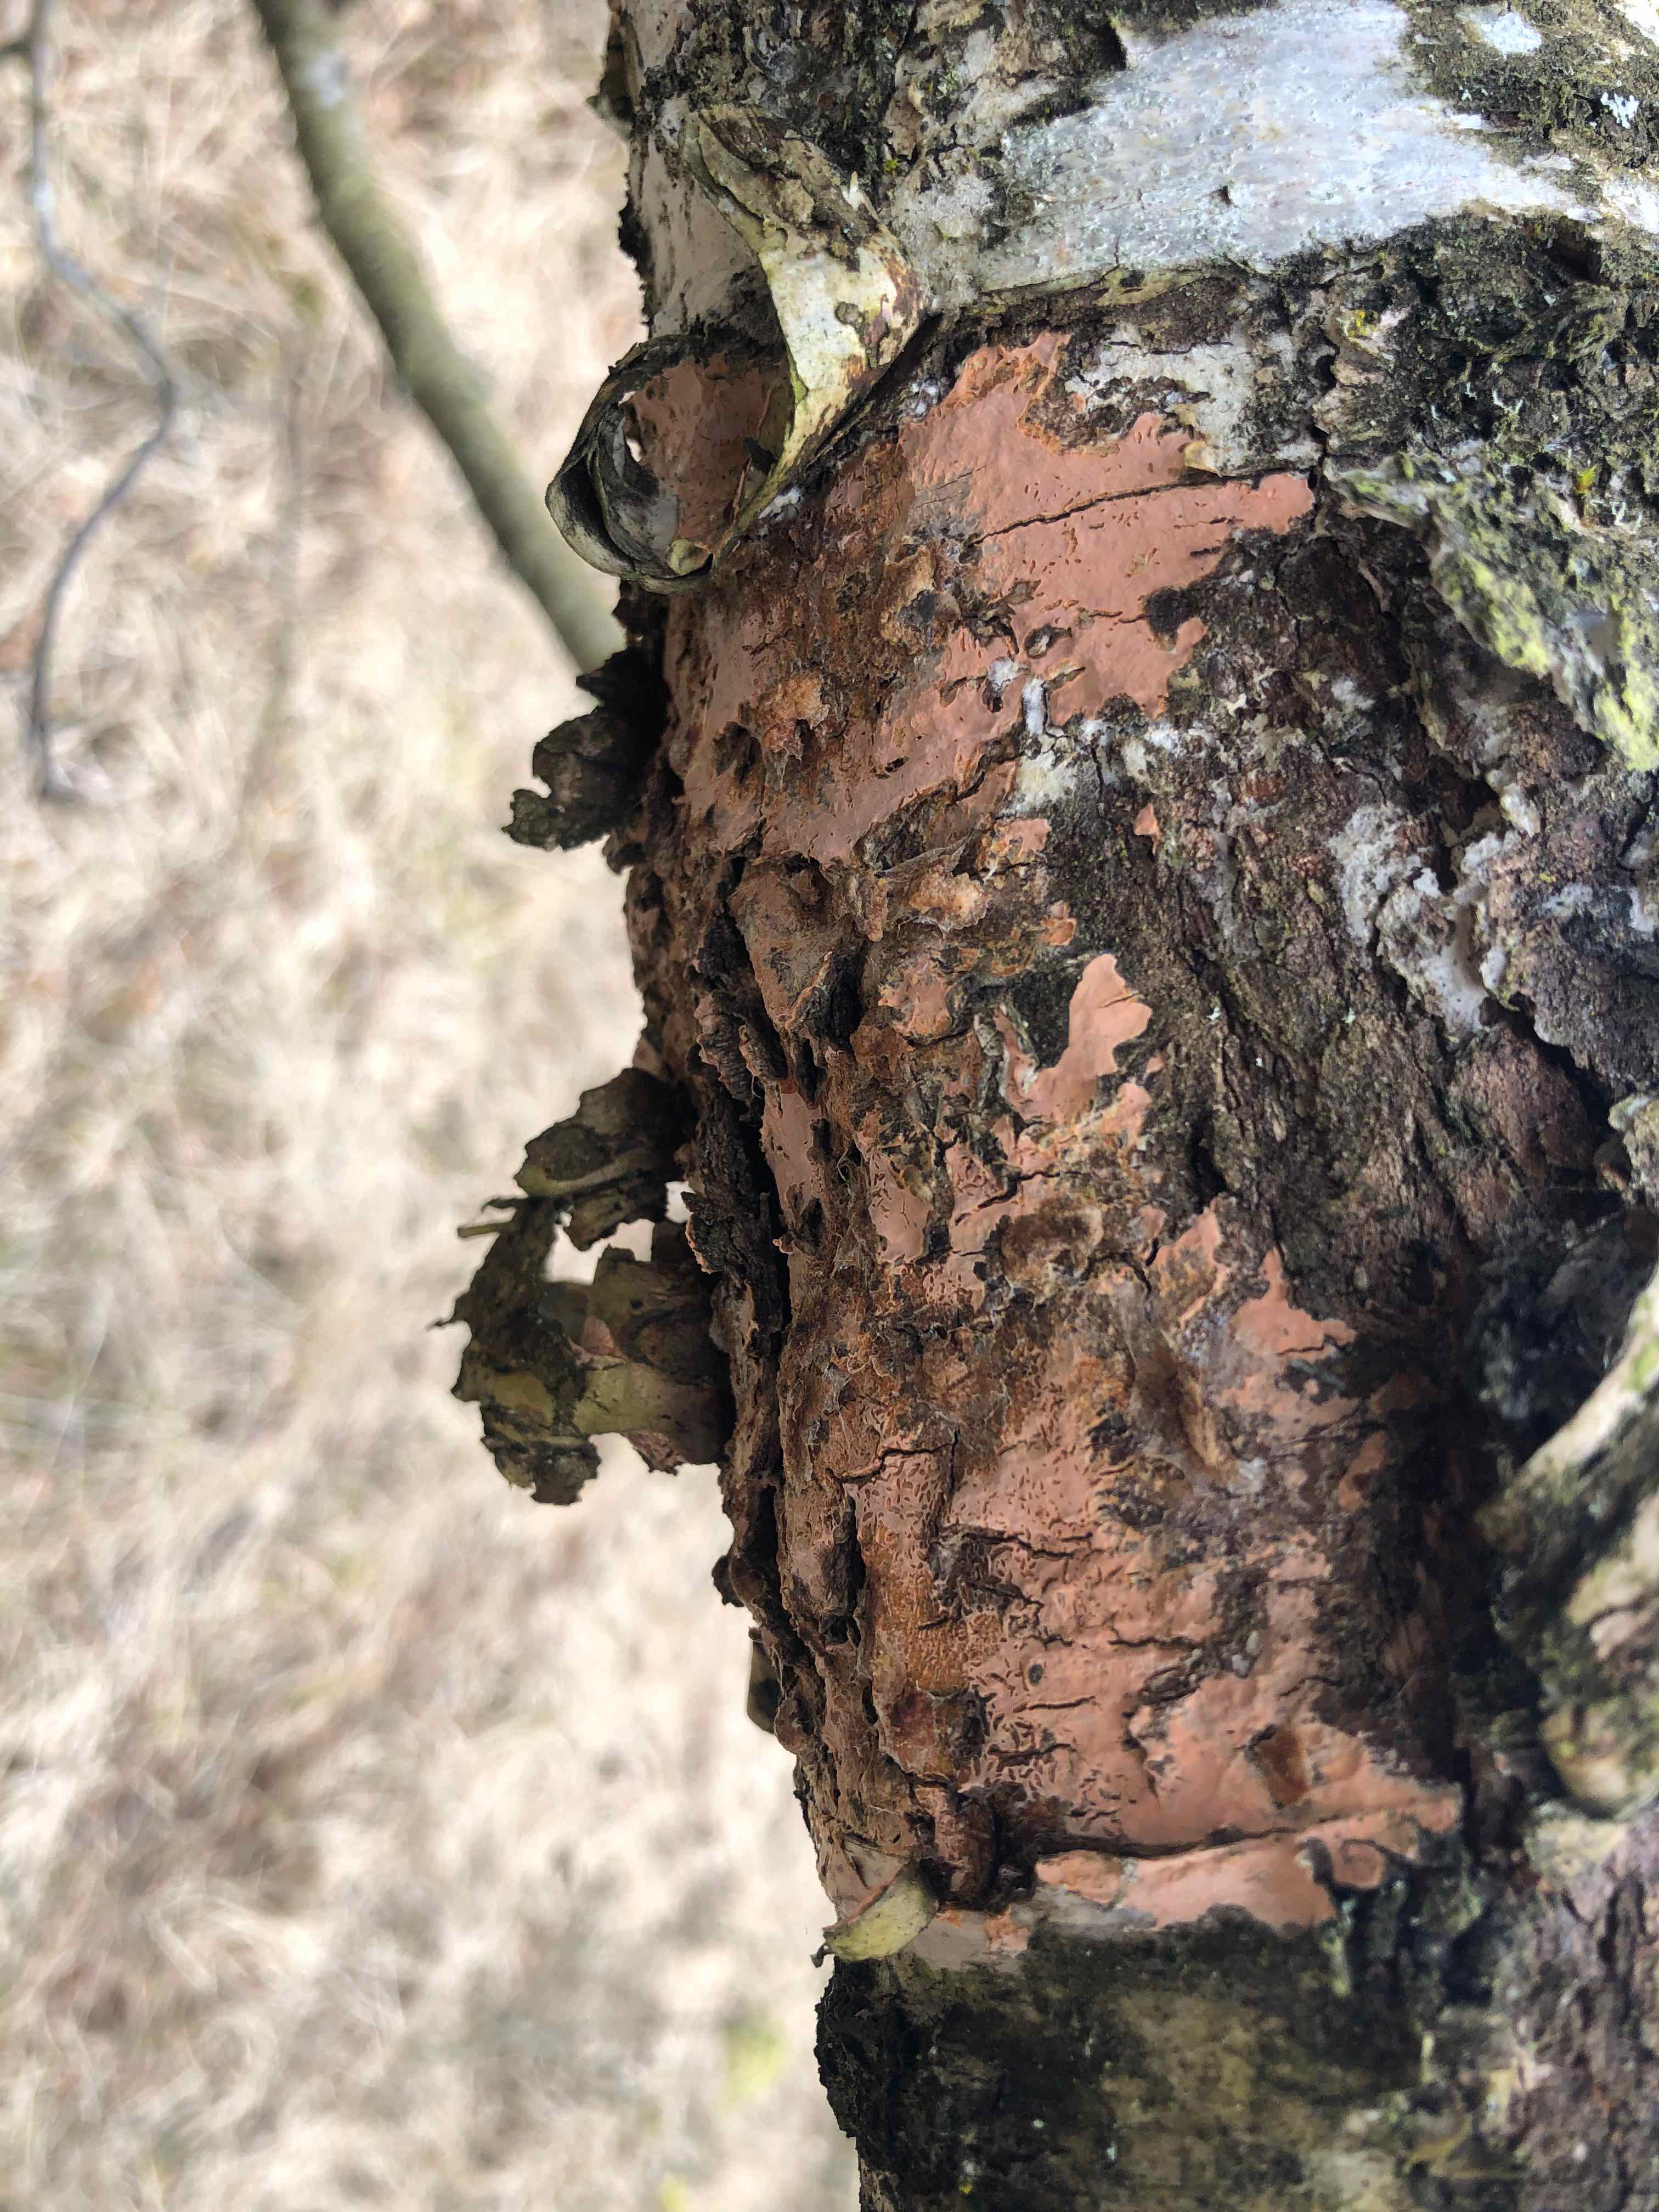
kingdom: Fungi
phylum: Basidiomycota
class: Agaricomycetes
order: Russulales
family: Peniophoraceae
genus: Peniophora
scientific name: Peniophora incarnata
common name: laksefarvet voksskind
